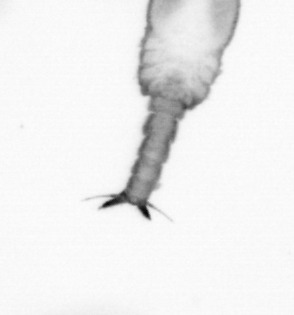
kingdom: Animalia
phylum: Arthropoda
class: Copepoda
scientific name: Copepoda
